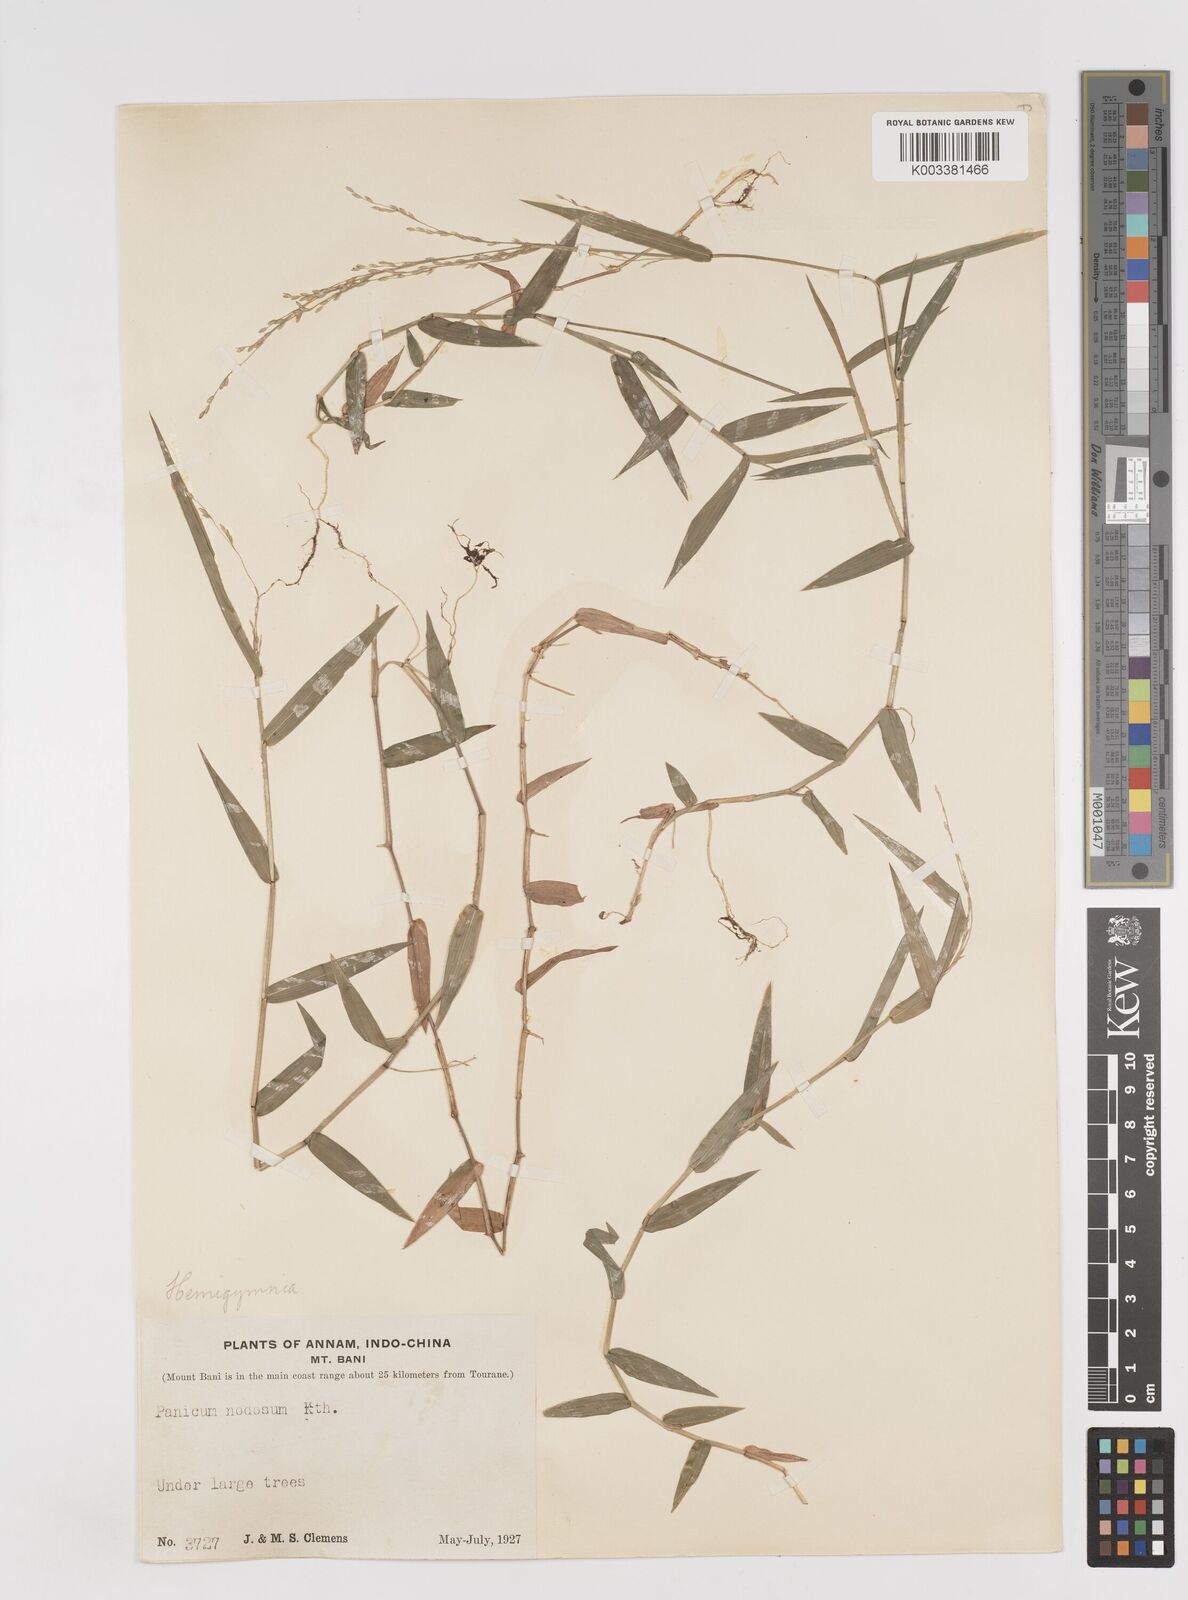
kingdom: Plantae
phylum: Tracheophyta
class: Liliopsida
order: Poales
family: Poaceae
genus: Ottochloa
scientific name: Ottochloa nodosa
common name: Slender-panic grass
